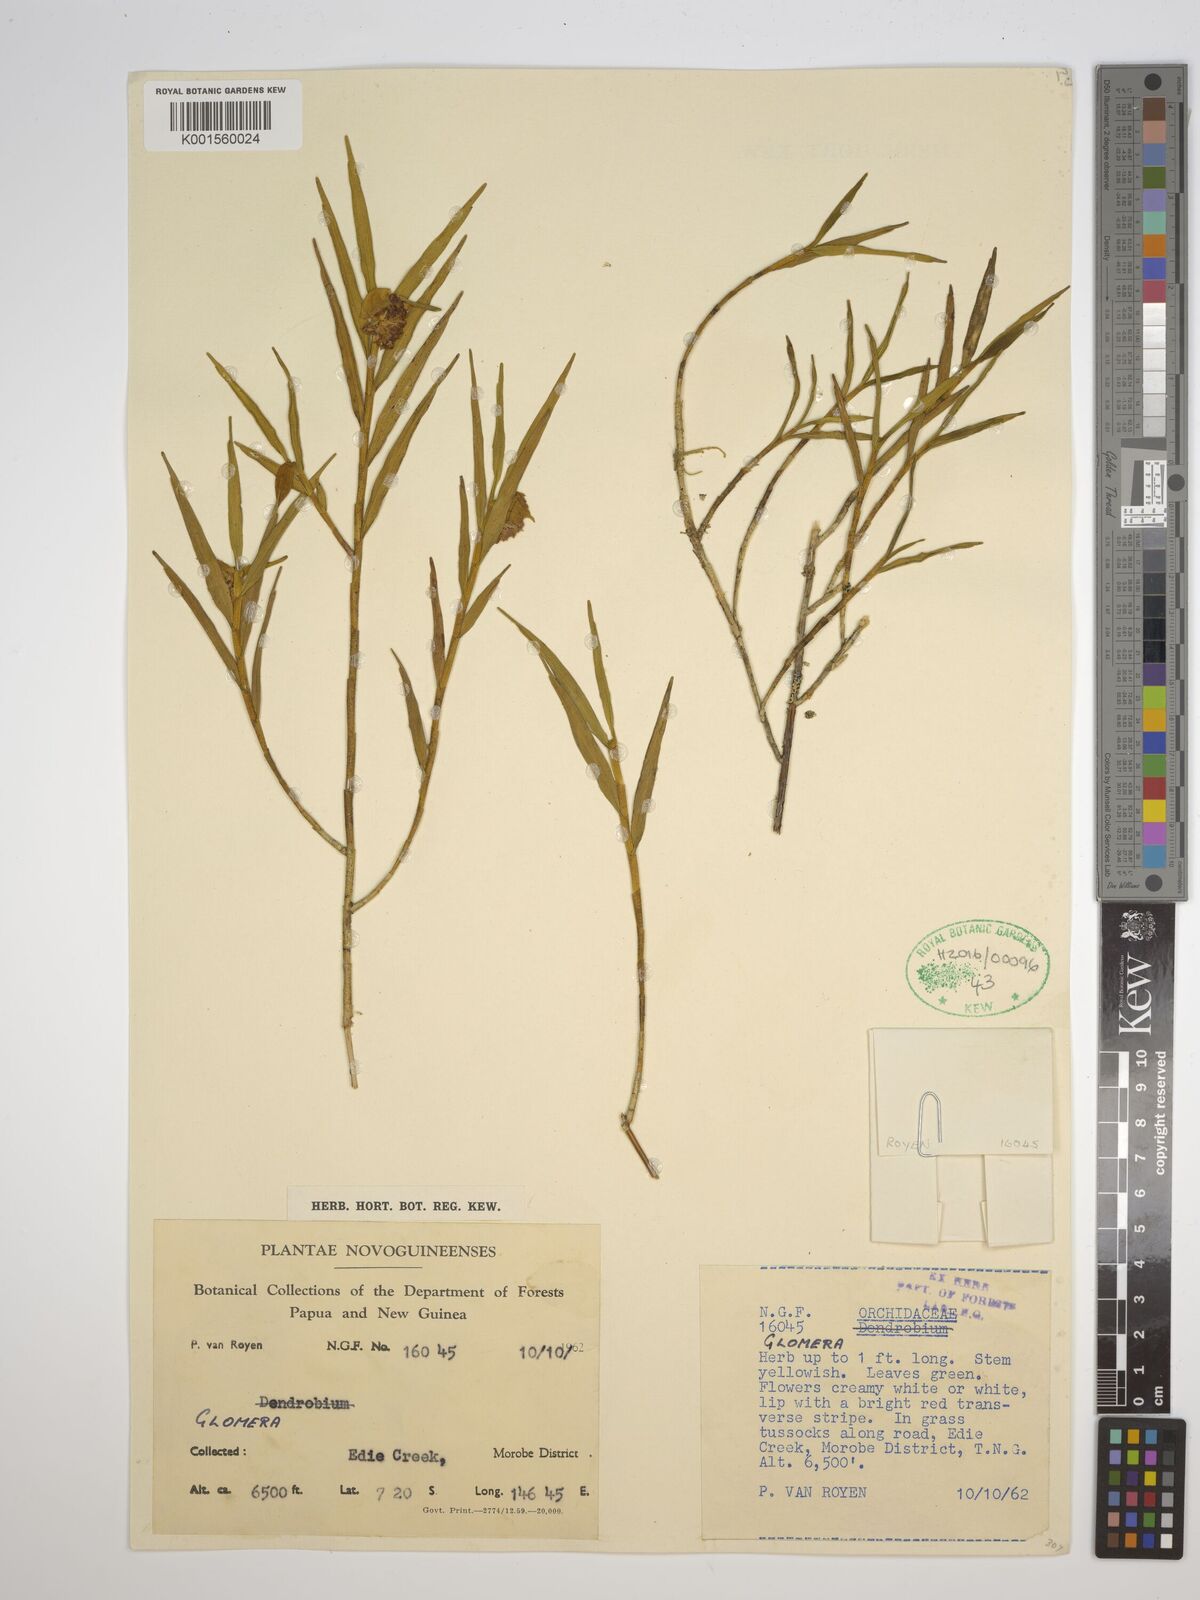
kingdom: Plantae
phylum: Tracheophyta
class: Liliopsida
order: Asparagales
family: Orchidaceae
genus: Glomera
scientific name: Glomera
